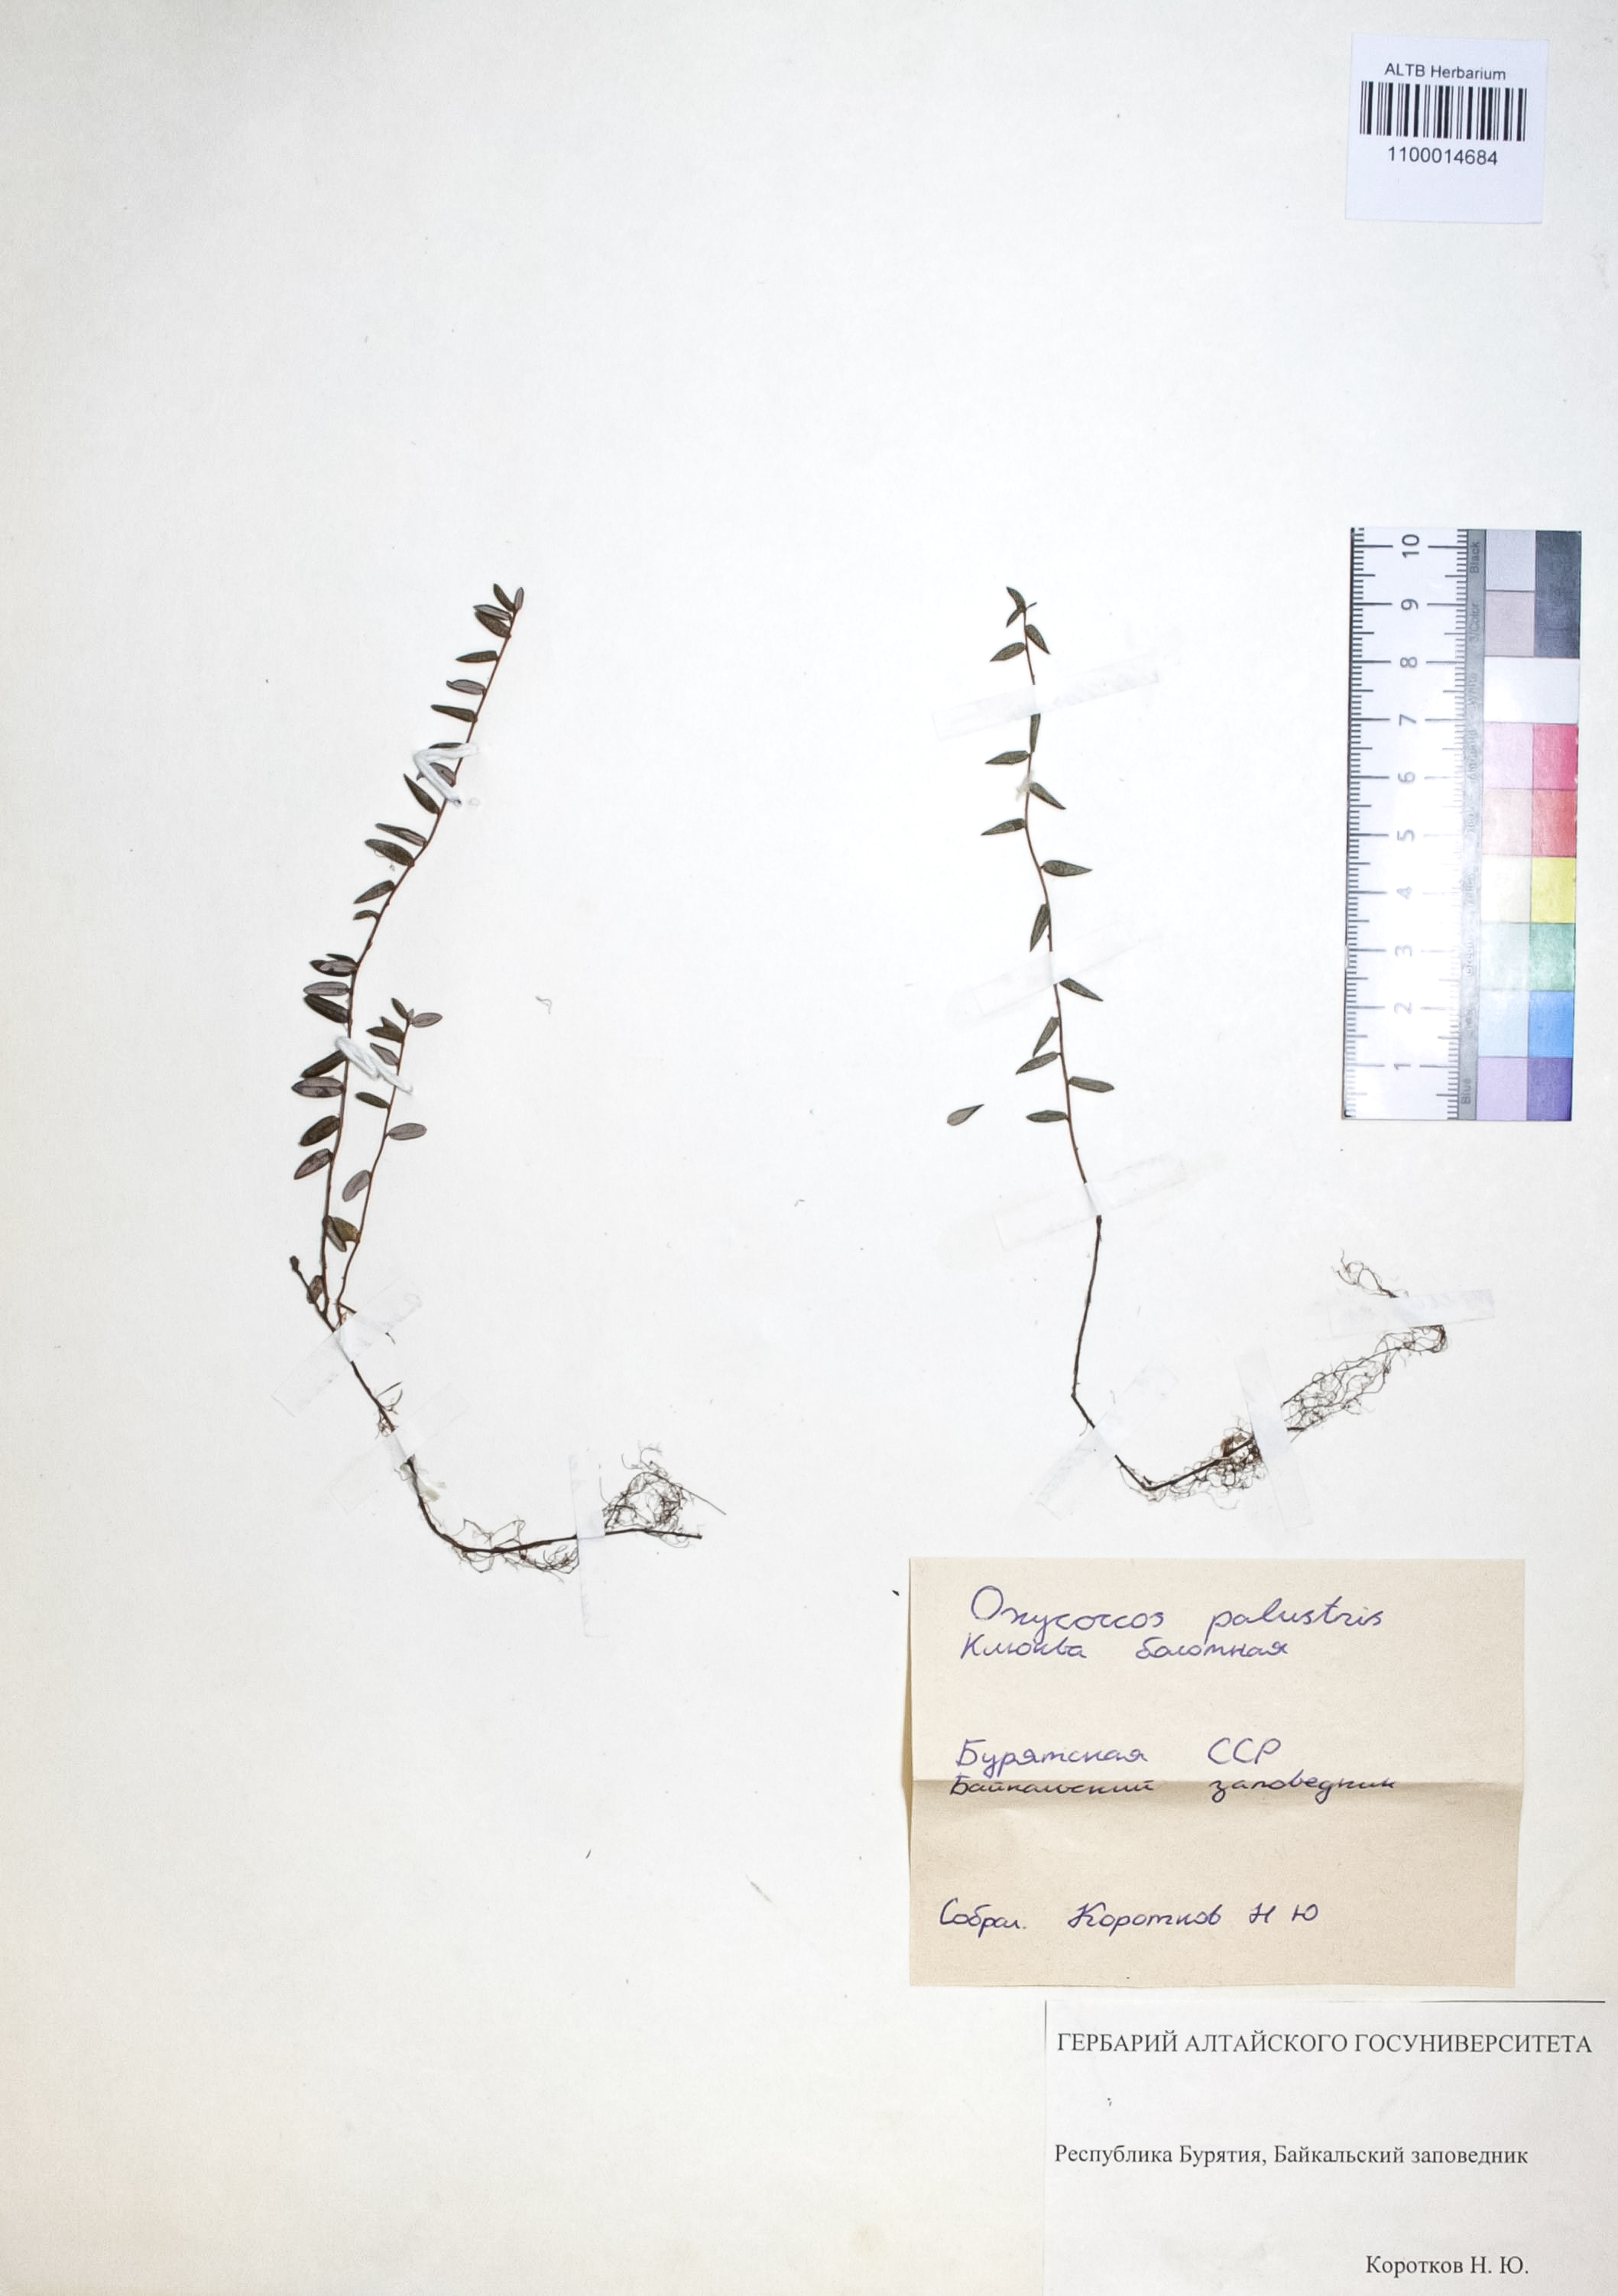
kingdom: Plantae
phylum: Tracheophyta
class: Magnoliopsida
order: Ericales
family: Ericaceae
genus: Vaccinium
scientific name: Vaccinium oxycoccos
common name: Cranberry
